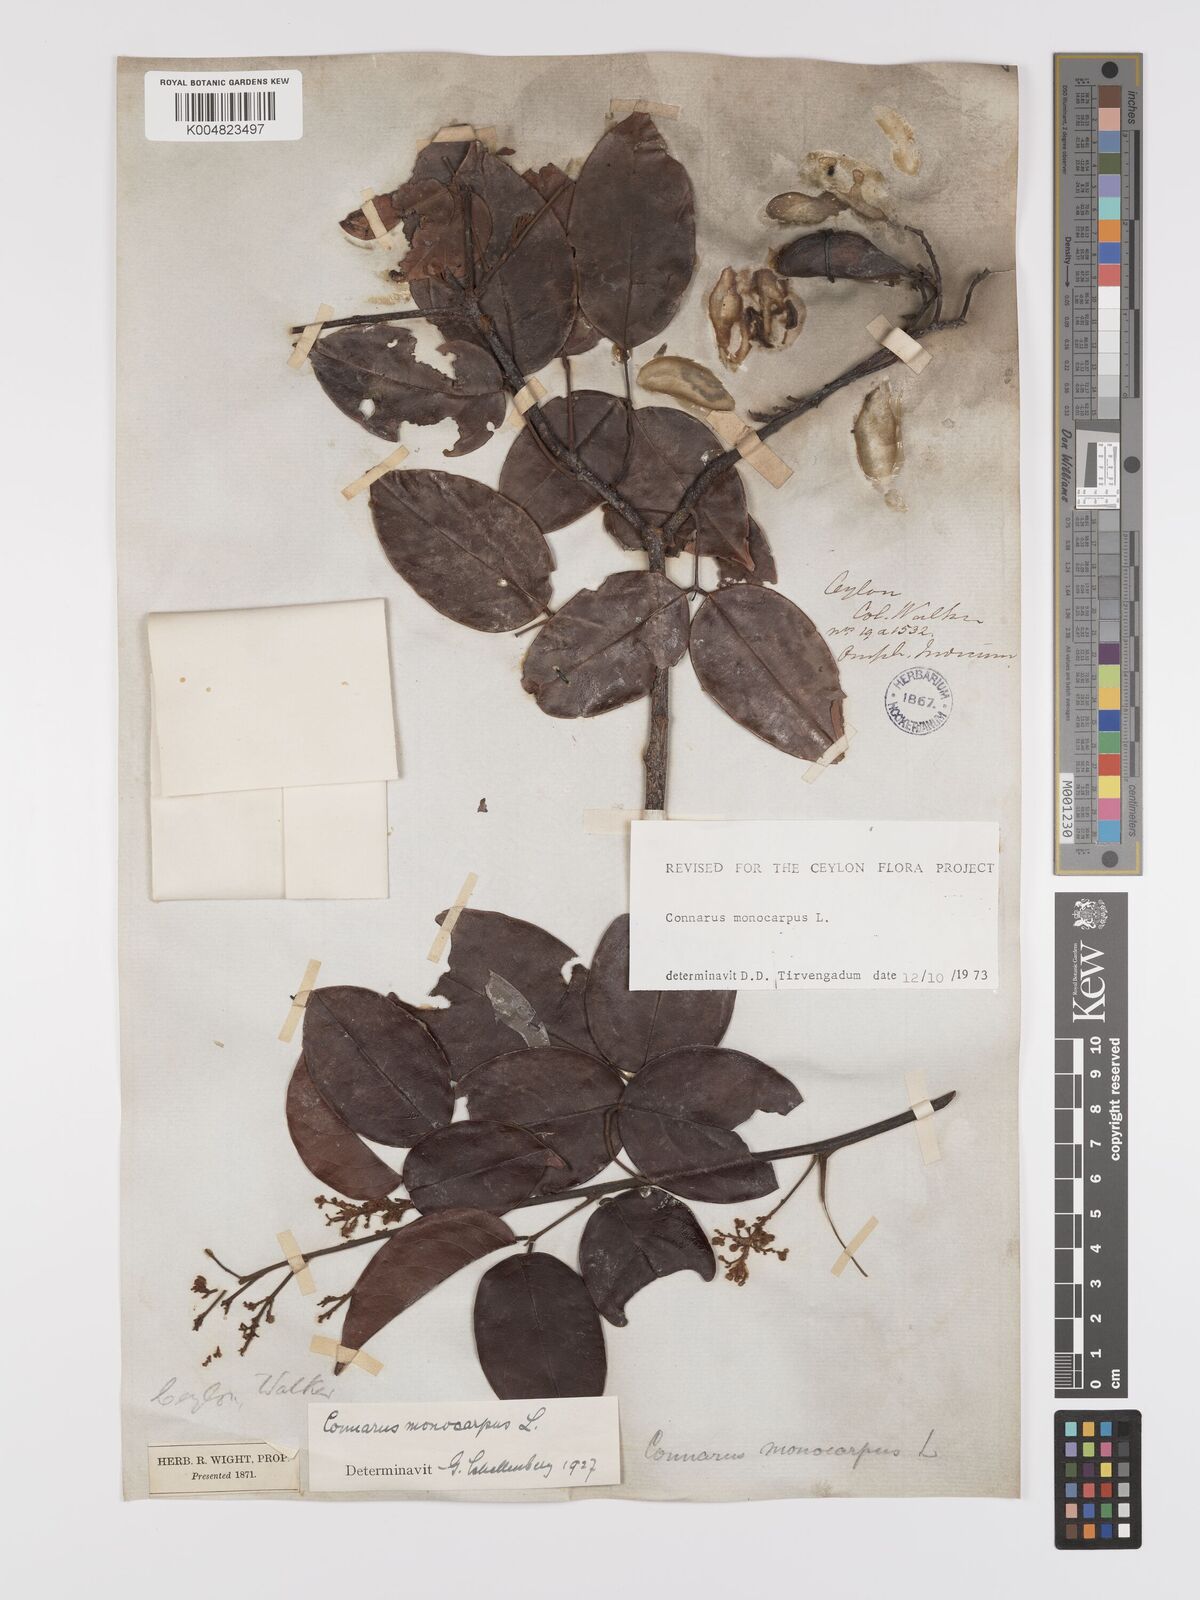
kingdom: Plantae
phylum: Tracheophyta
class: Magnoliopsida
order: Oxalidales
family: Connaraceae
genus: Connarus
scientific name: Connarus semidecandrus
